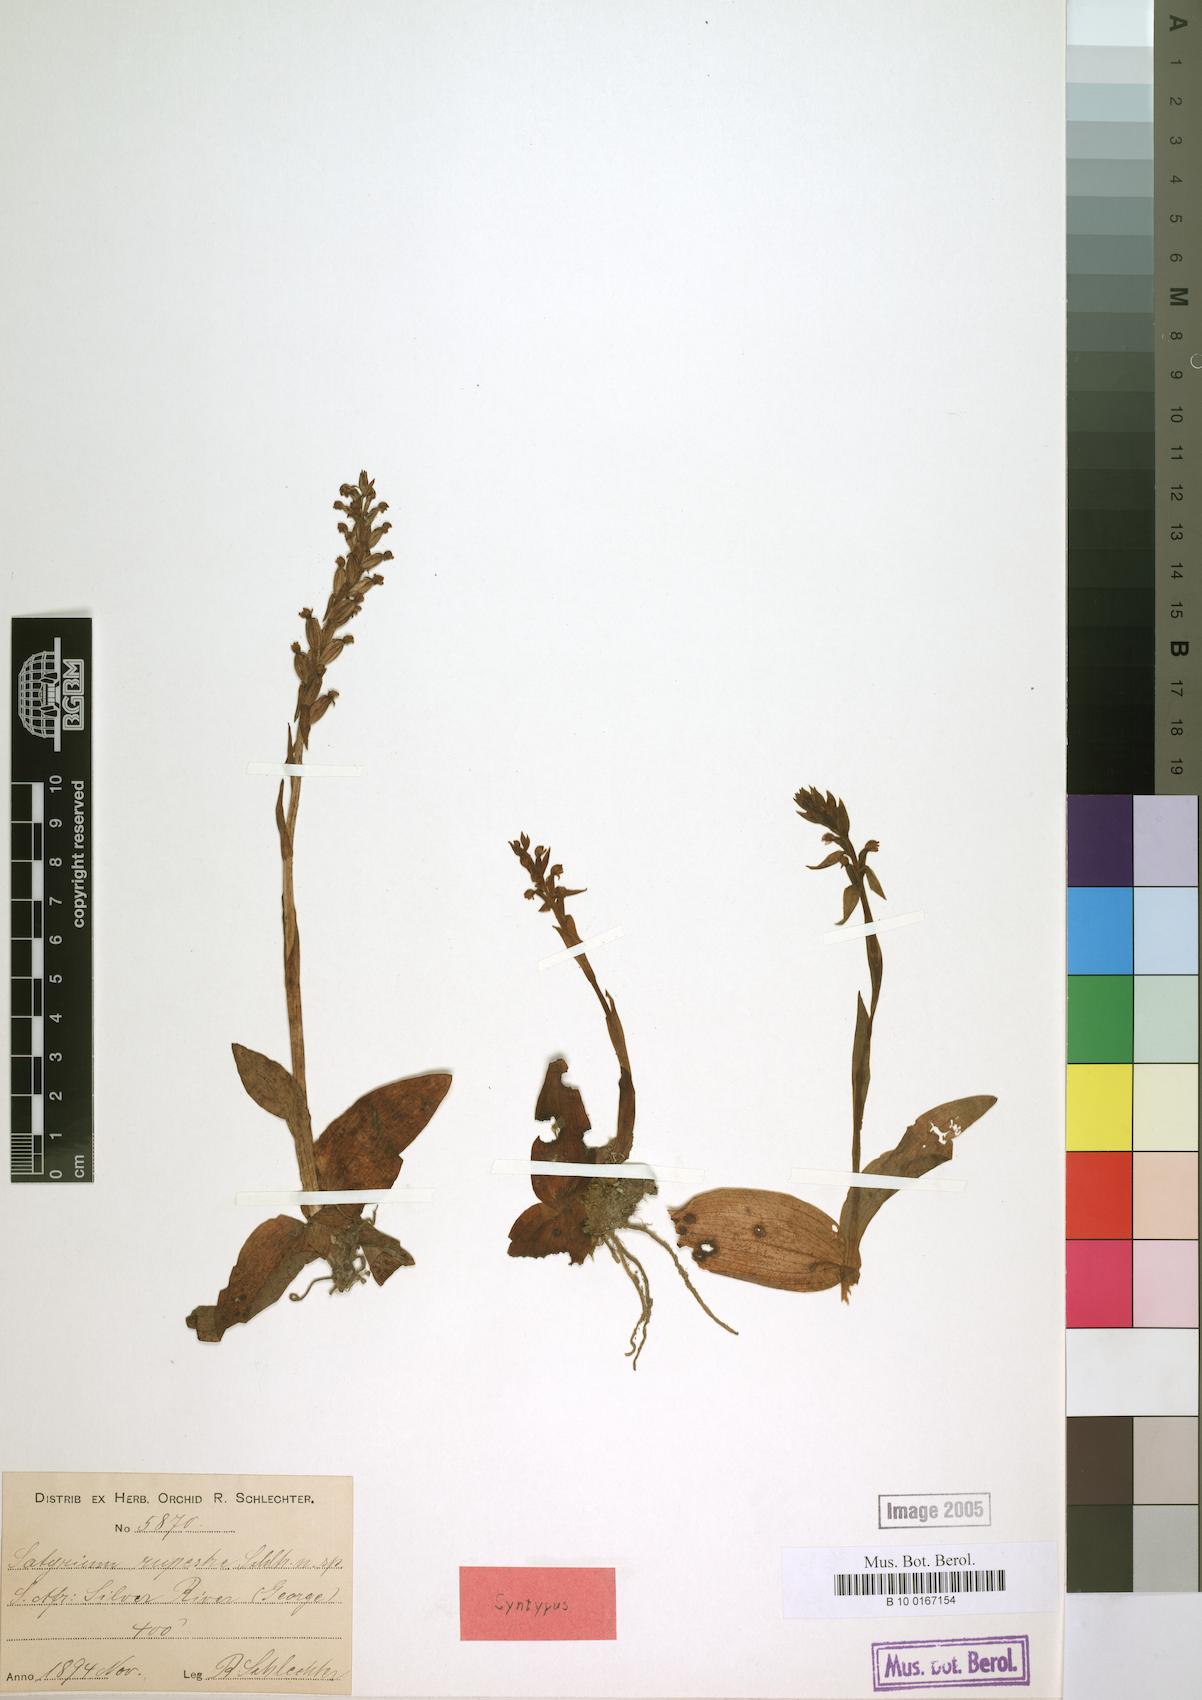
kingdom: Plantae
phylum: Tracheophyta
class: Liliopsida
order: Asparagales
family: Orchidaceae
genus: Satyrium
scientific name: Satyrium rupestre
